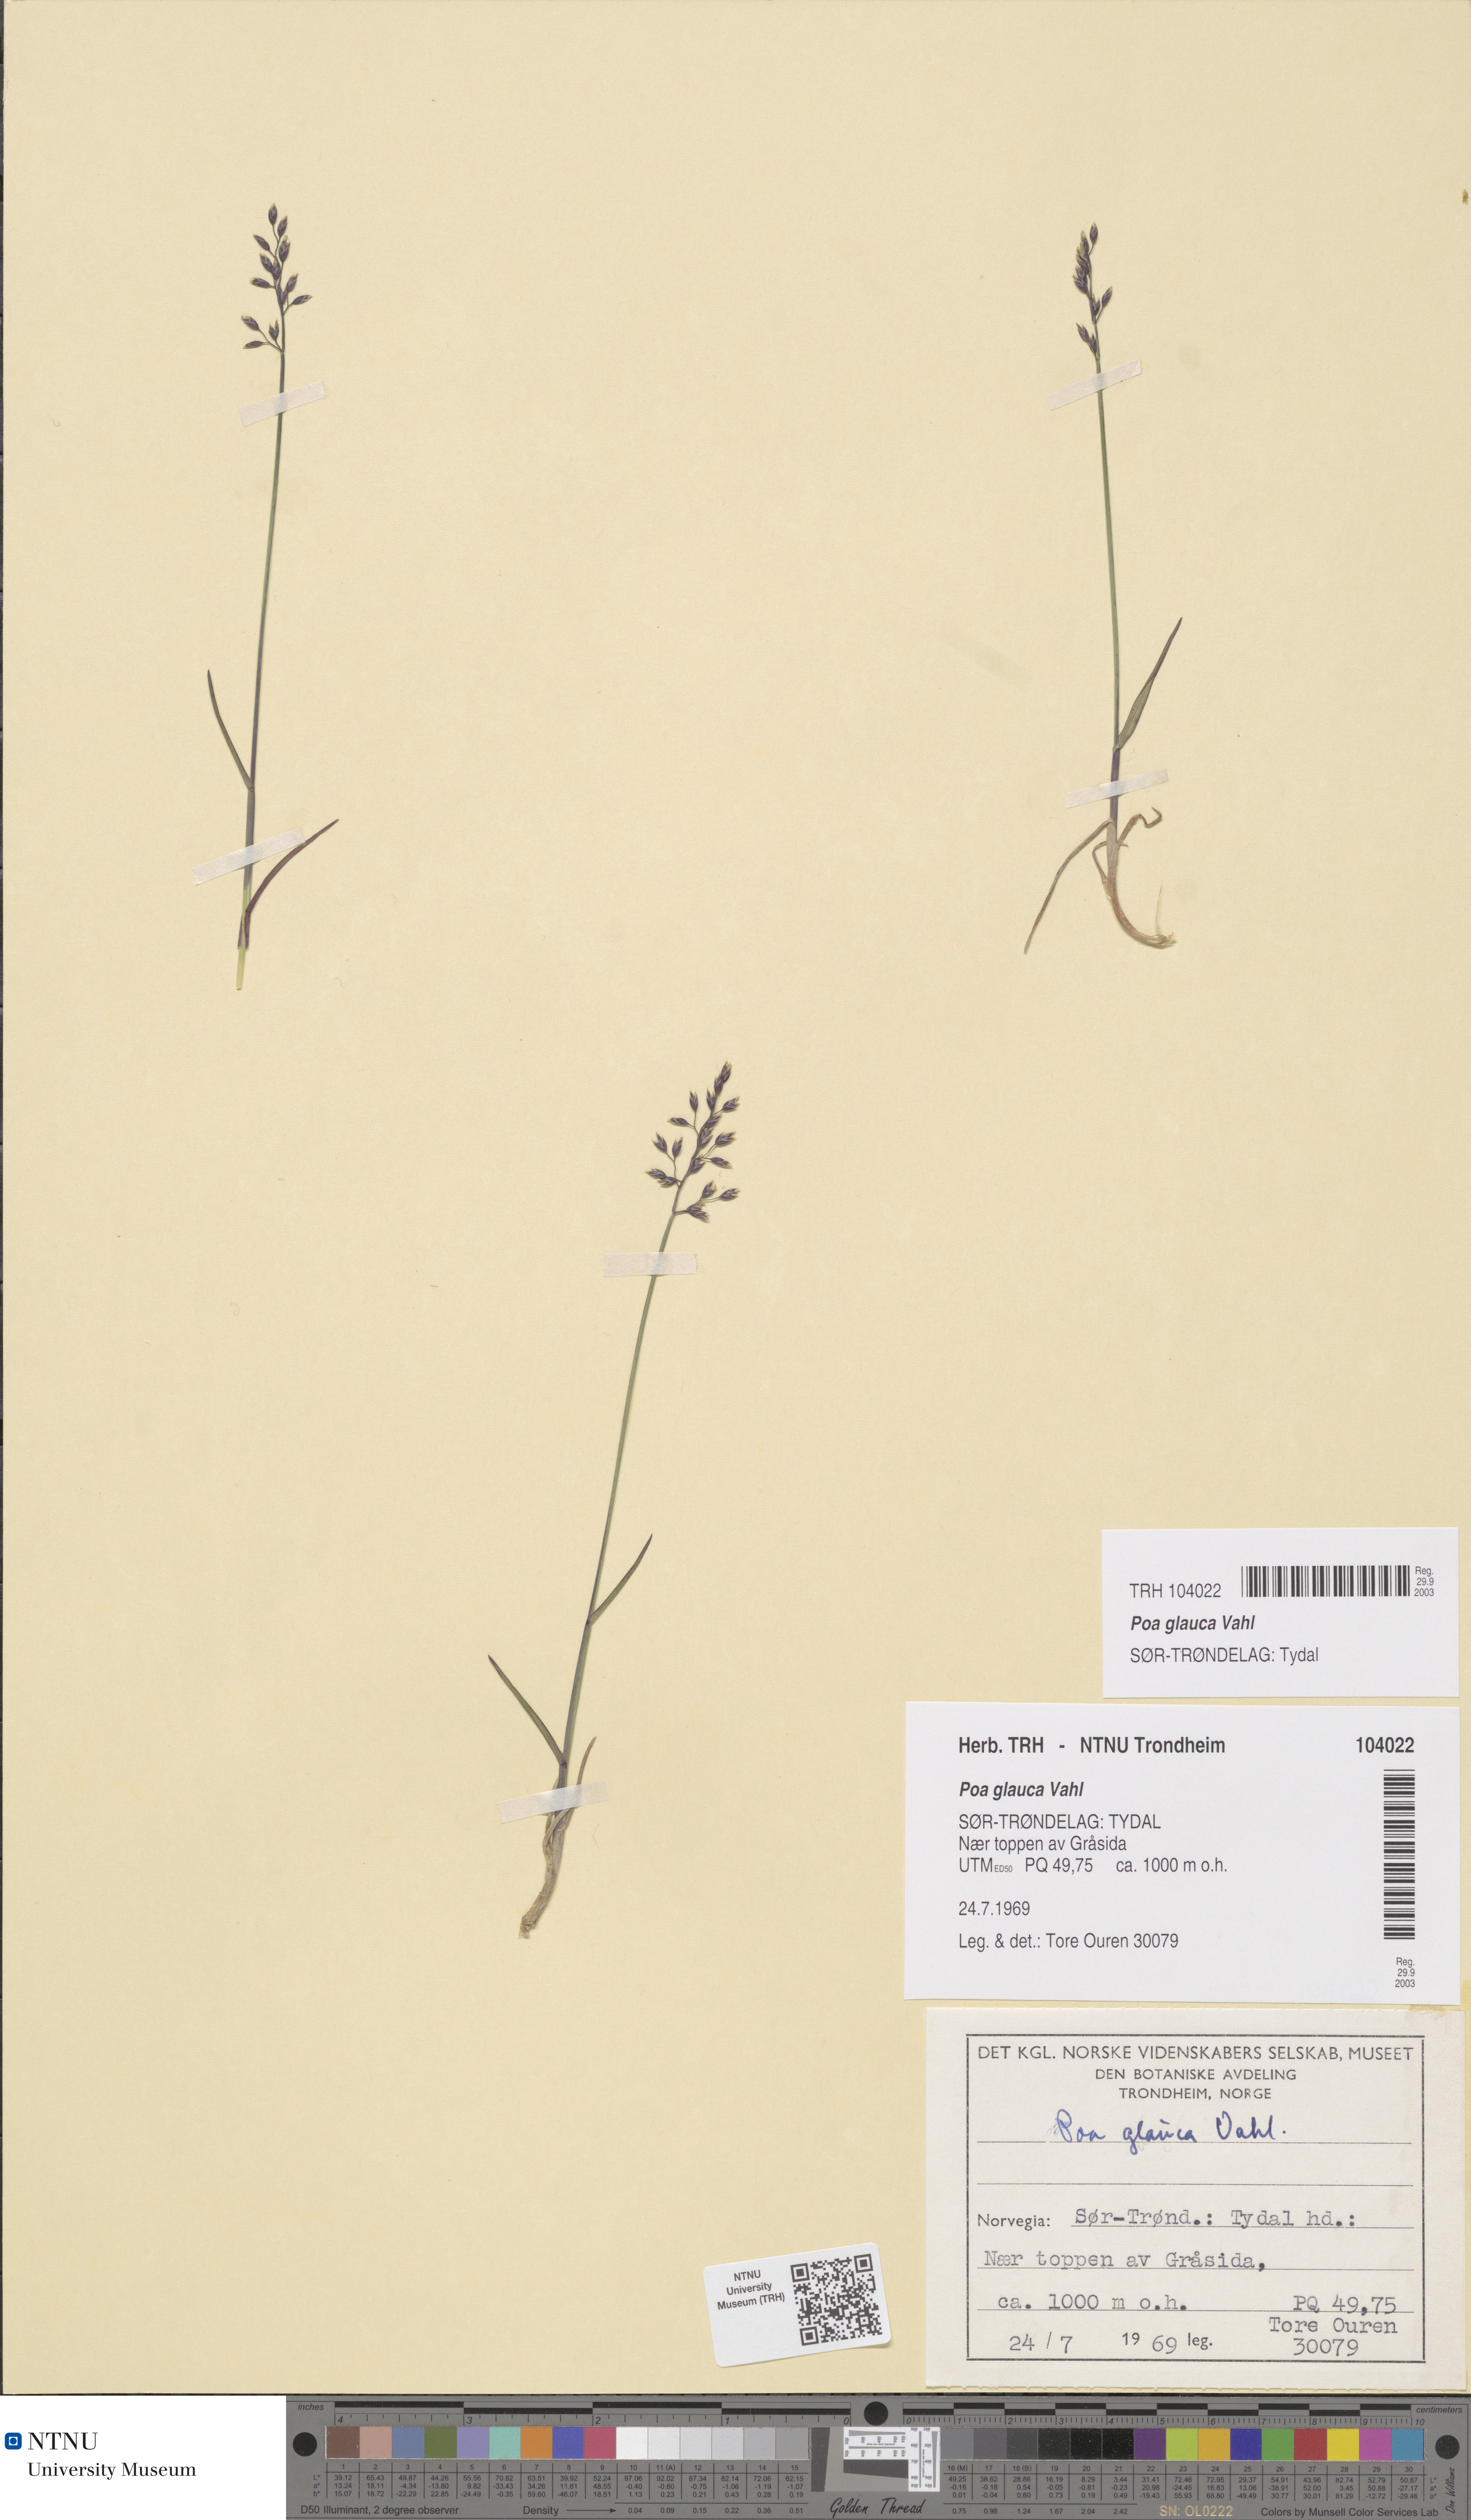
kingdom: Plantae
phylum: Tracheophyta
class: Liliopsida
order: Poales
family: Poaceae
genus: Poa
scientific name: Poa glauca
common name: Glaucous bluegrass
